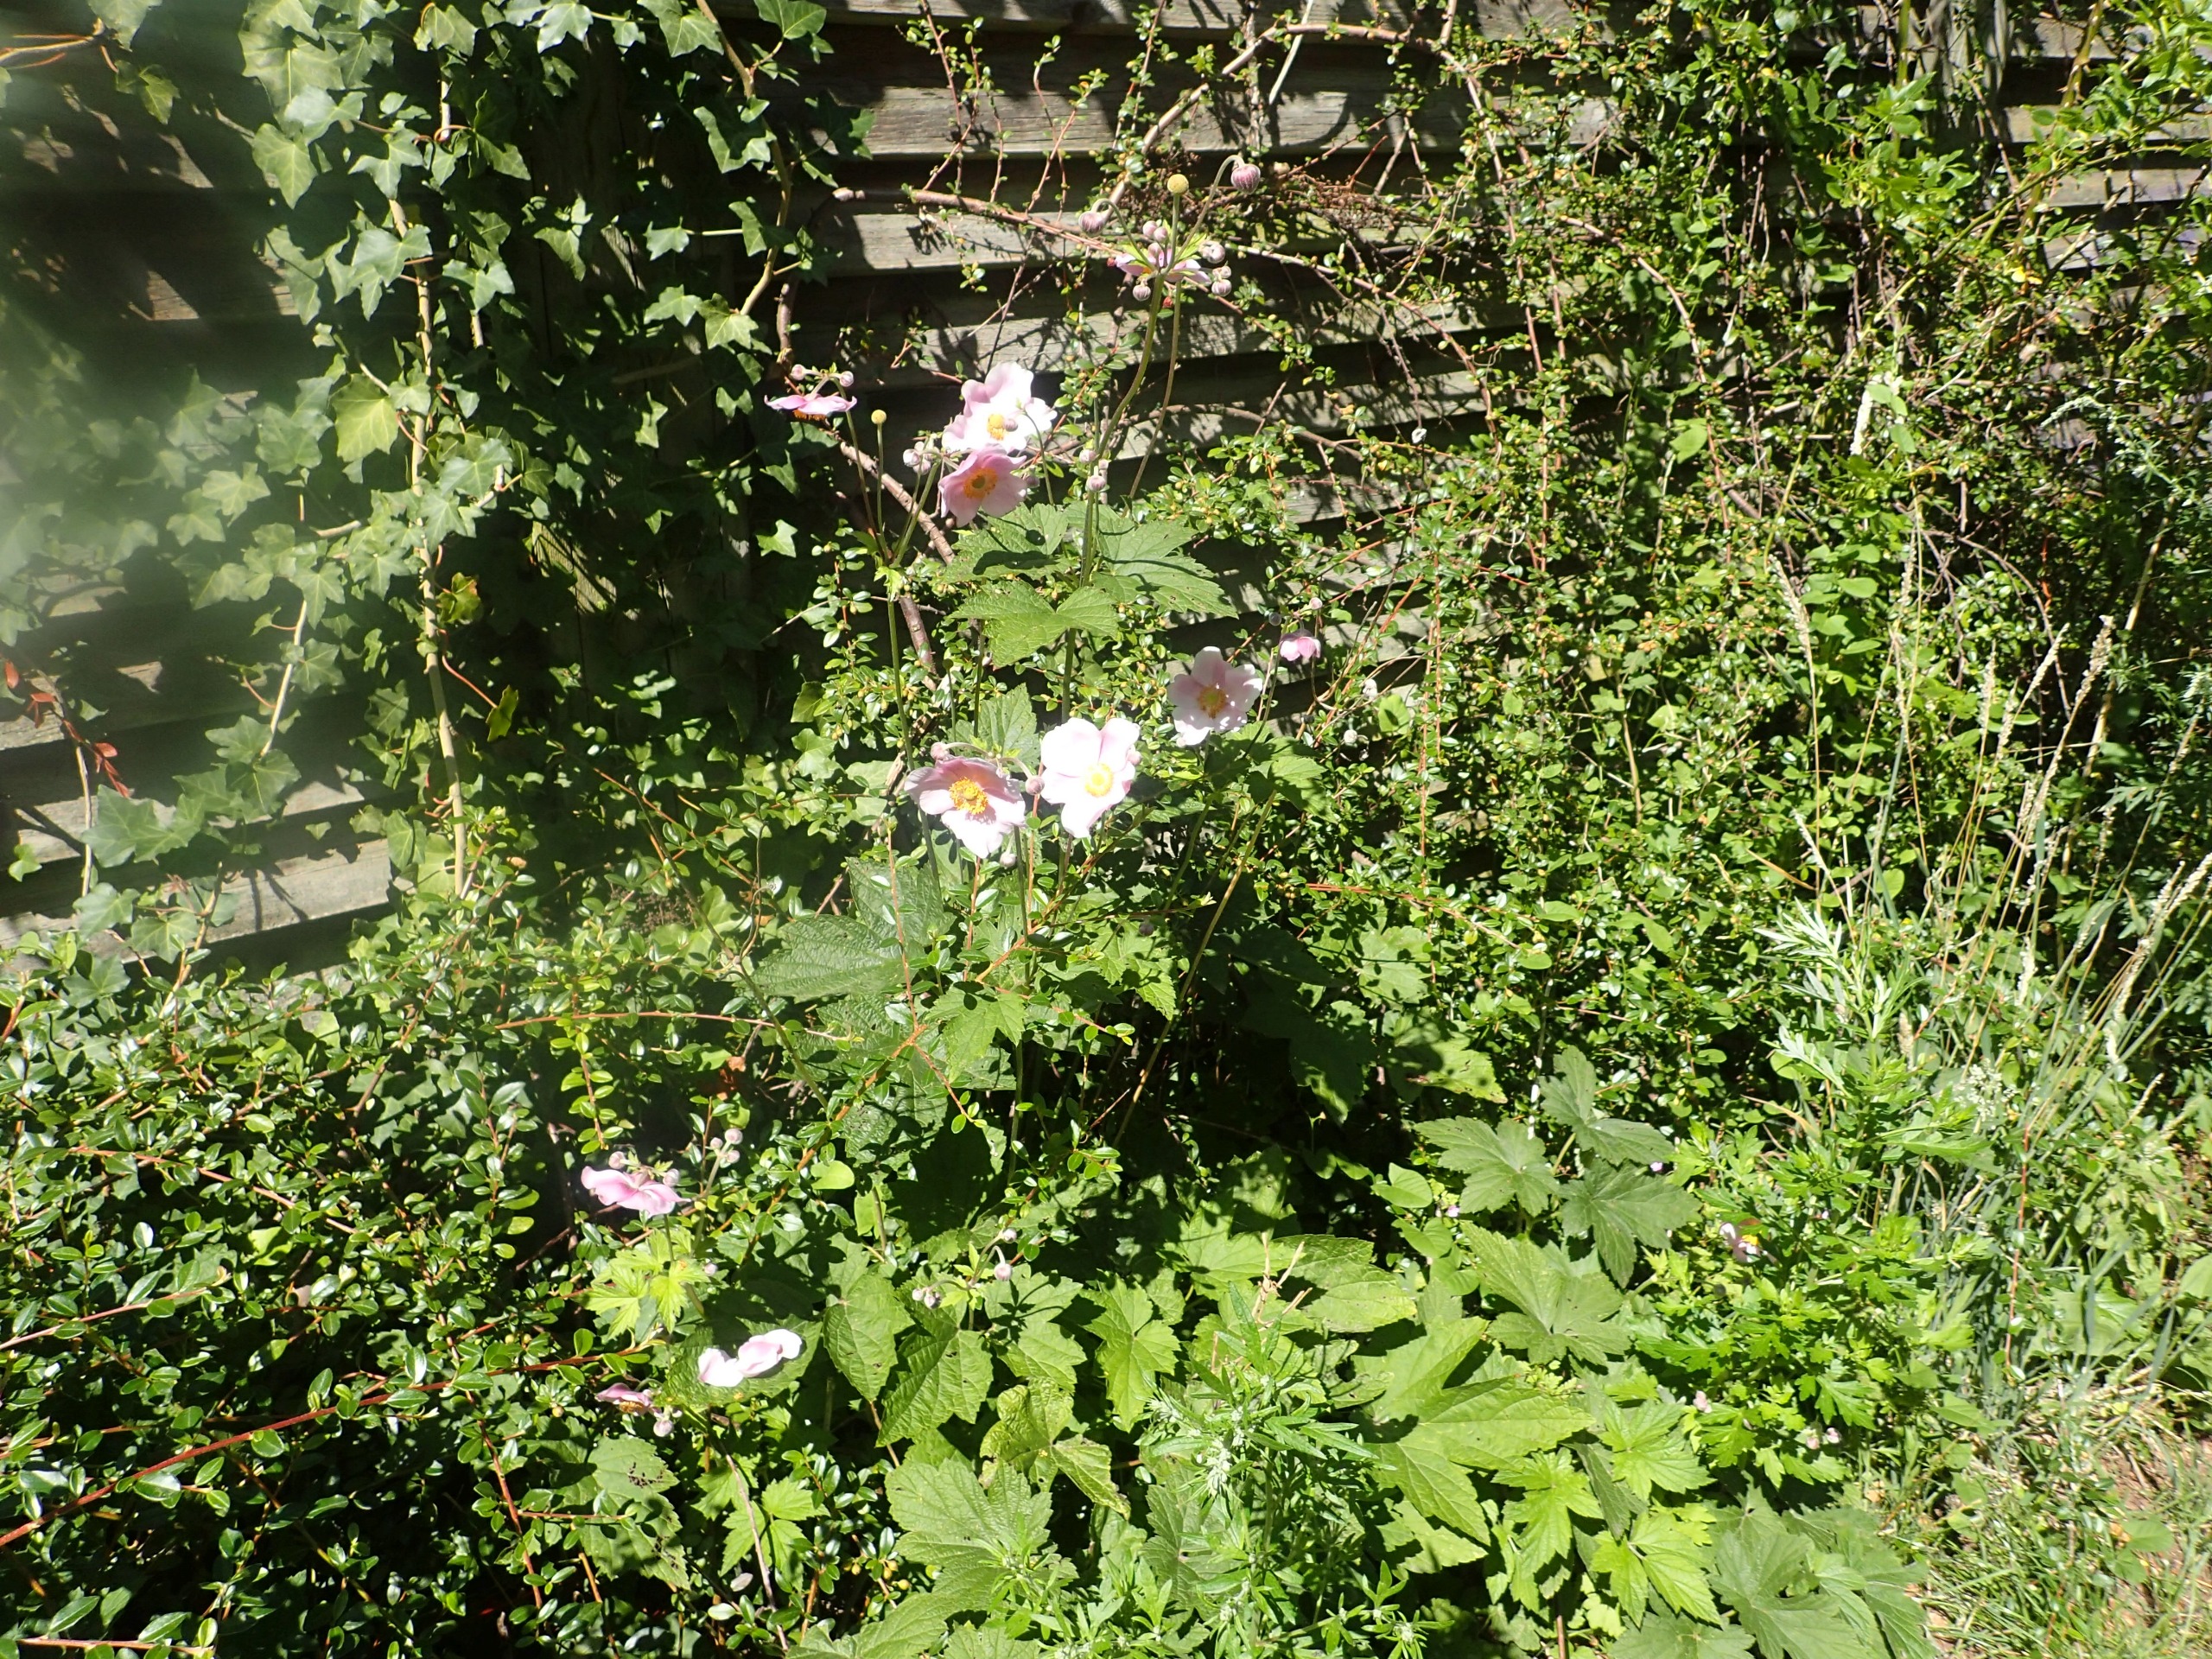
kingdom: Plantae
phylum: Tracheophyta
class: Magnoliopsida
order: Ranunculales
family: Ranunculaceae
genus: Eriocapitella
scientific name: Eriocapitella hupehensis
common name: Høst-anemone
